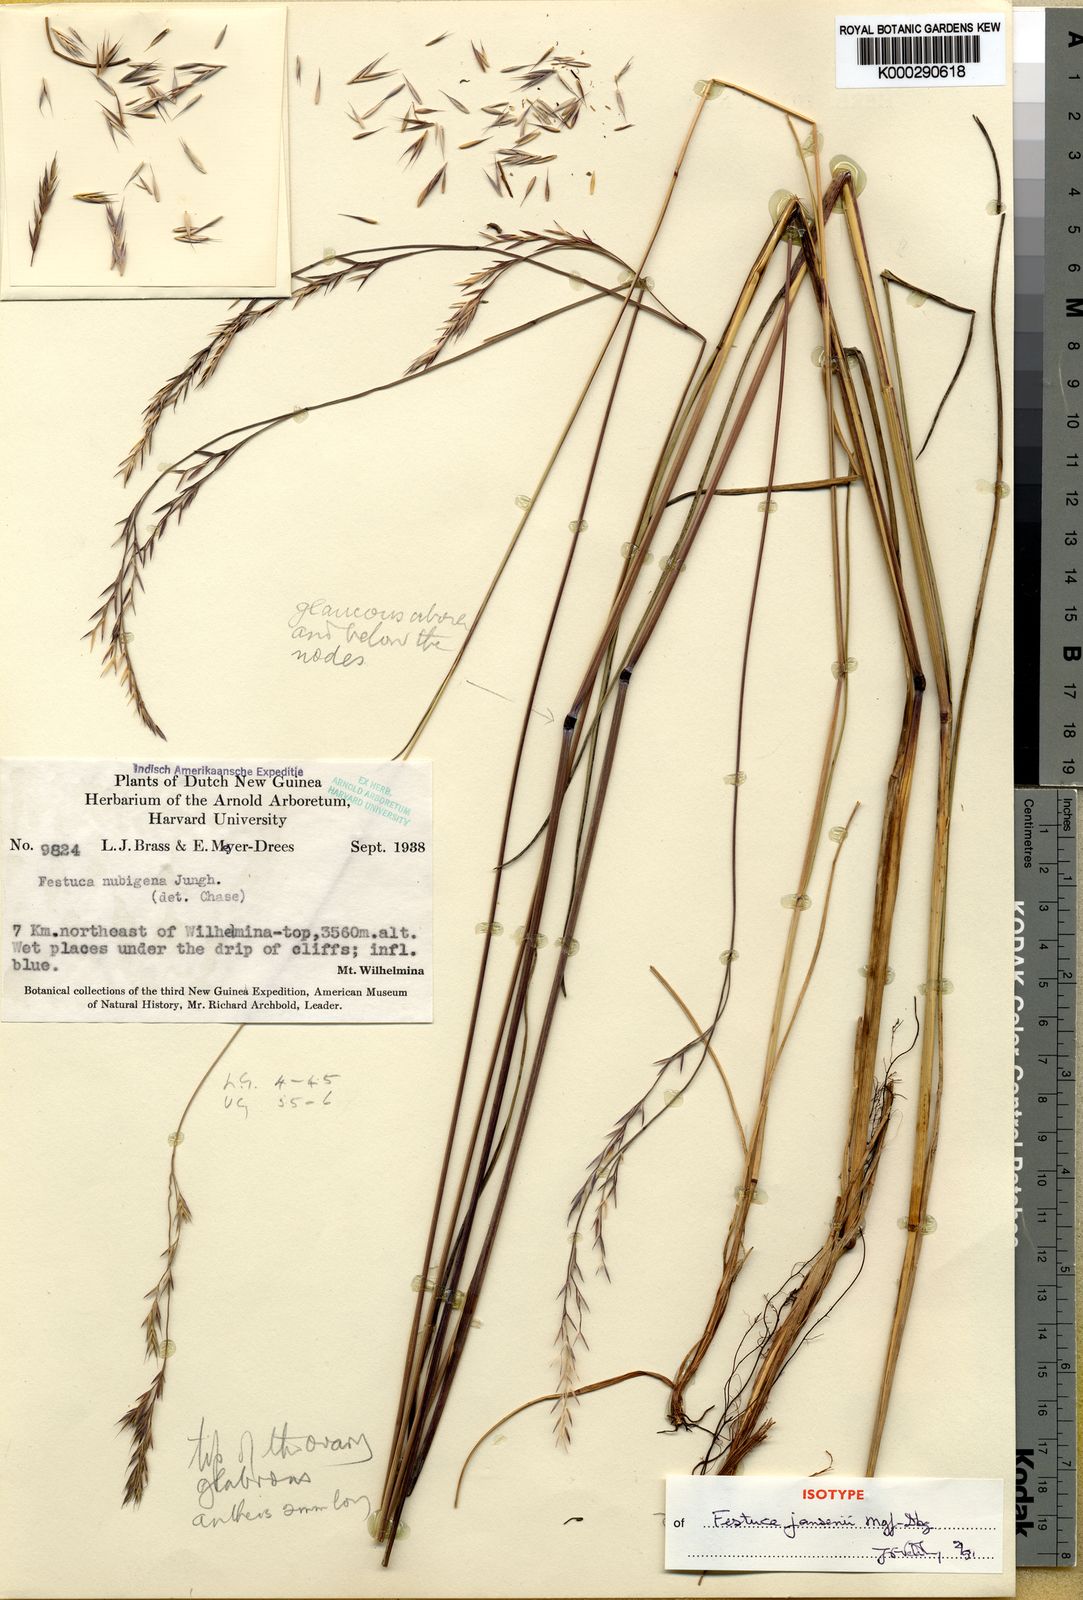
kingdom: Plantae
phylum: Tracheophyta
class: Liliopsida
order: Poales
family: Poaceae
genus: Festuca
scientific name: Festuca jansenii
